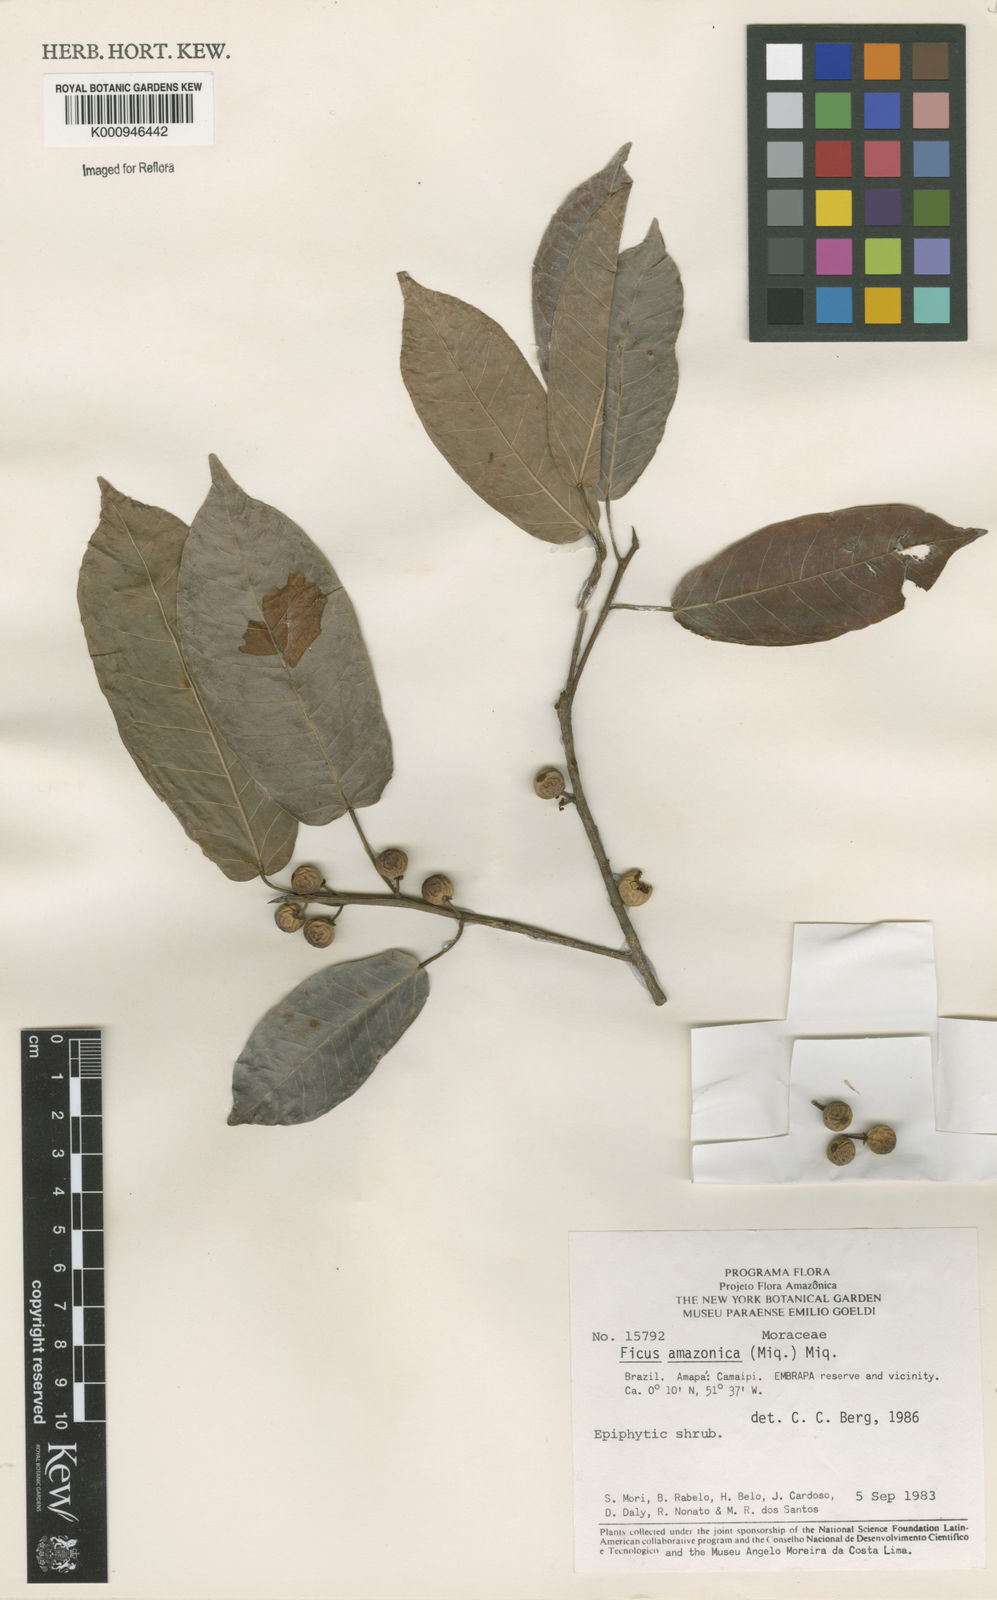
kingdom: Plantae
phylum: Tracheophyta
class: Magnoliopsida
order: Rosales
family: Moraceae
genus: Ficus
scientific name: Ficus krukovii
